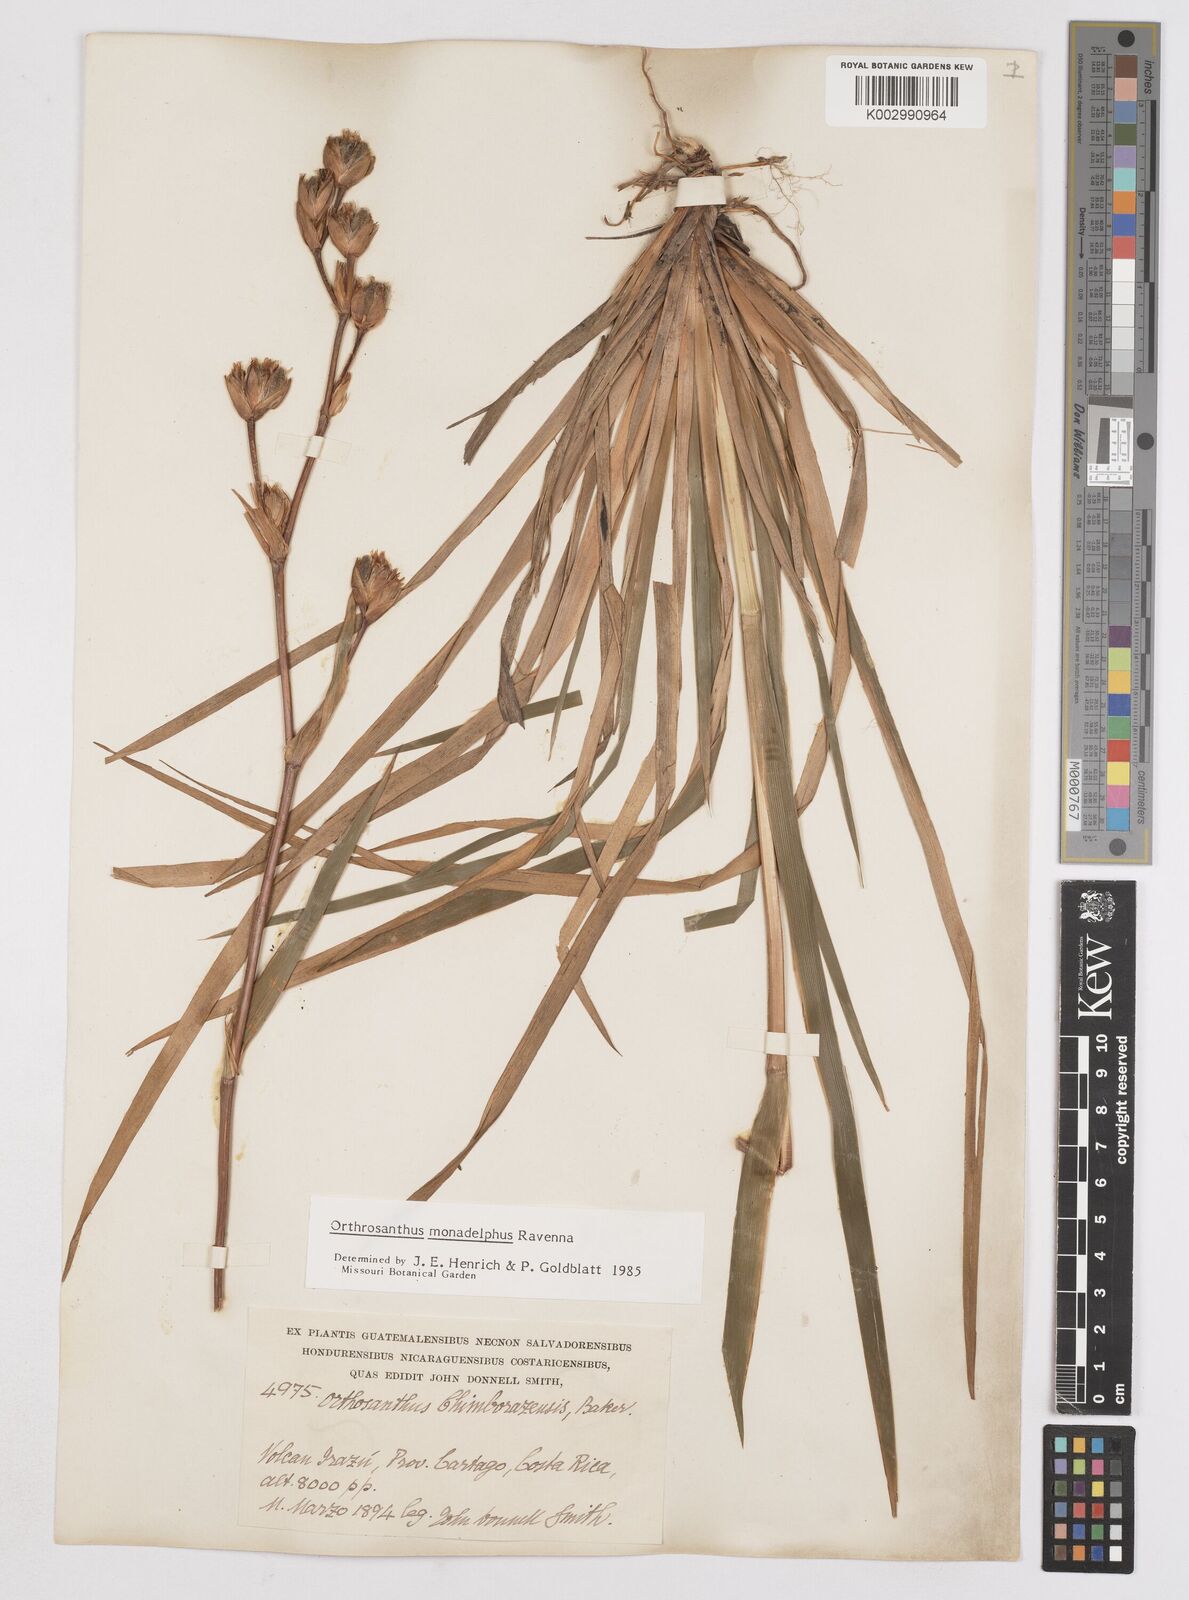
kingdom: Plantae
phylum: Tracheophyta
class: Liliopsida
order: Asparagales
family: Iridaceae
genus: Orthrosanthus
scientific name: Orthrosanthus monadelphus
